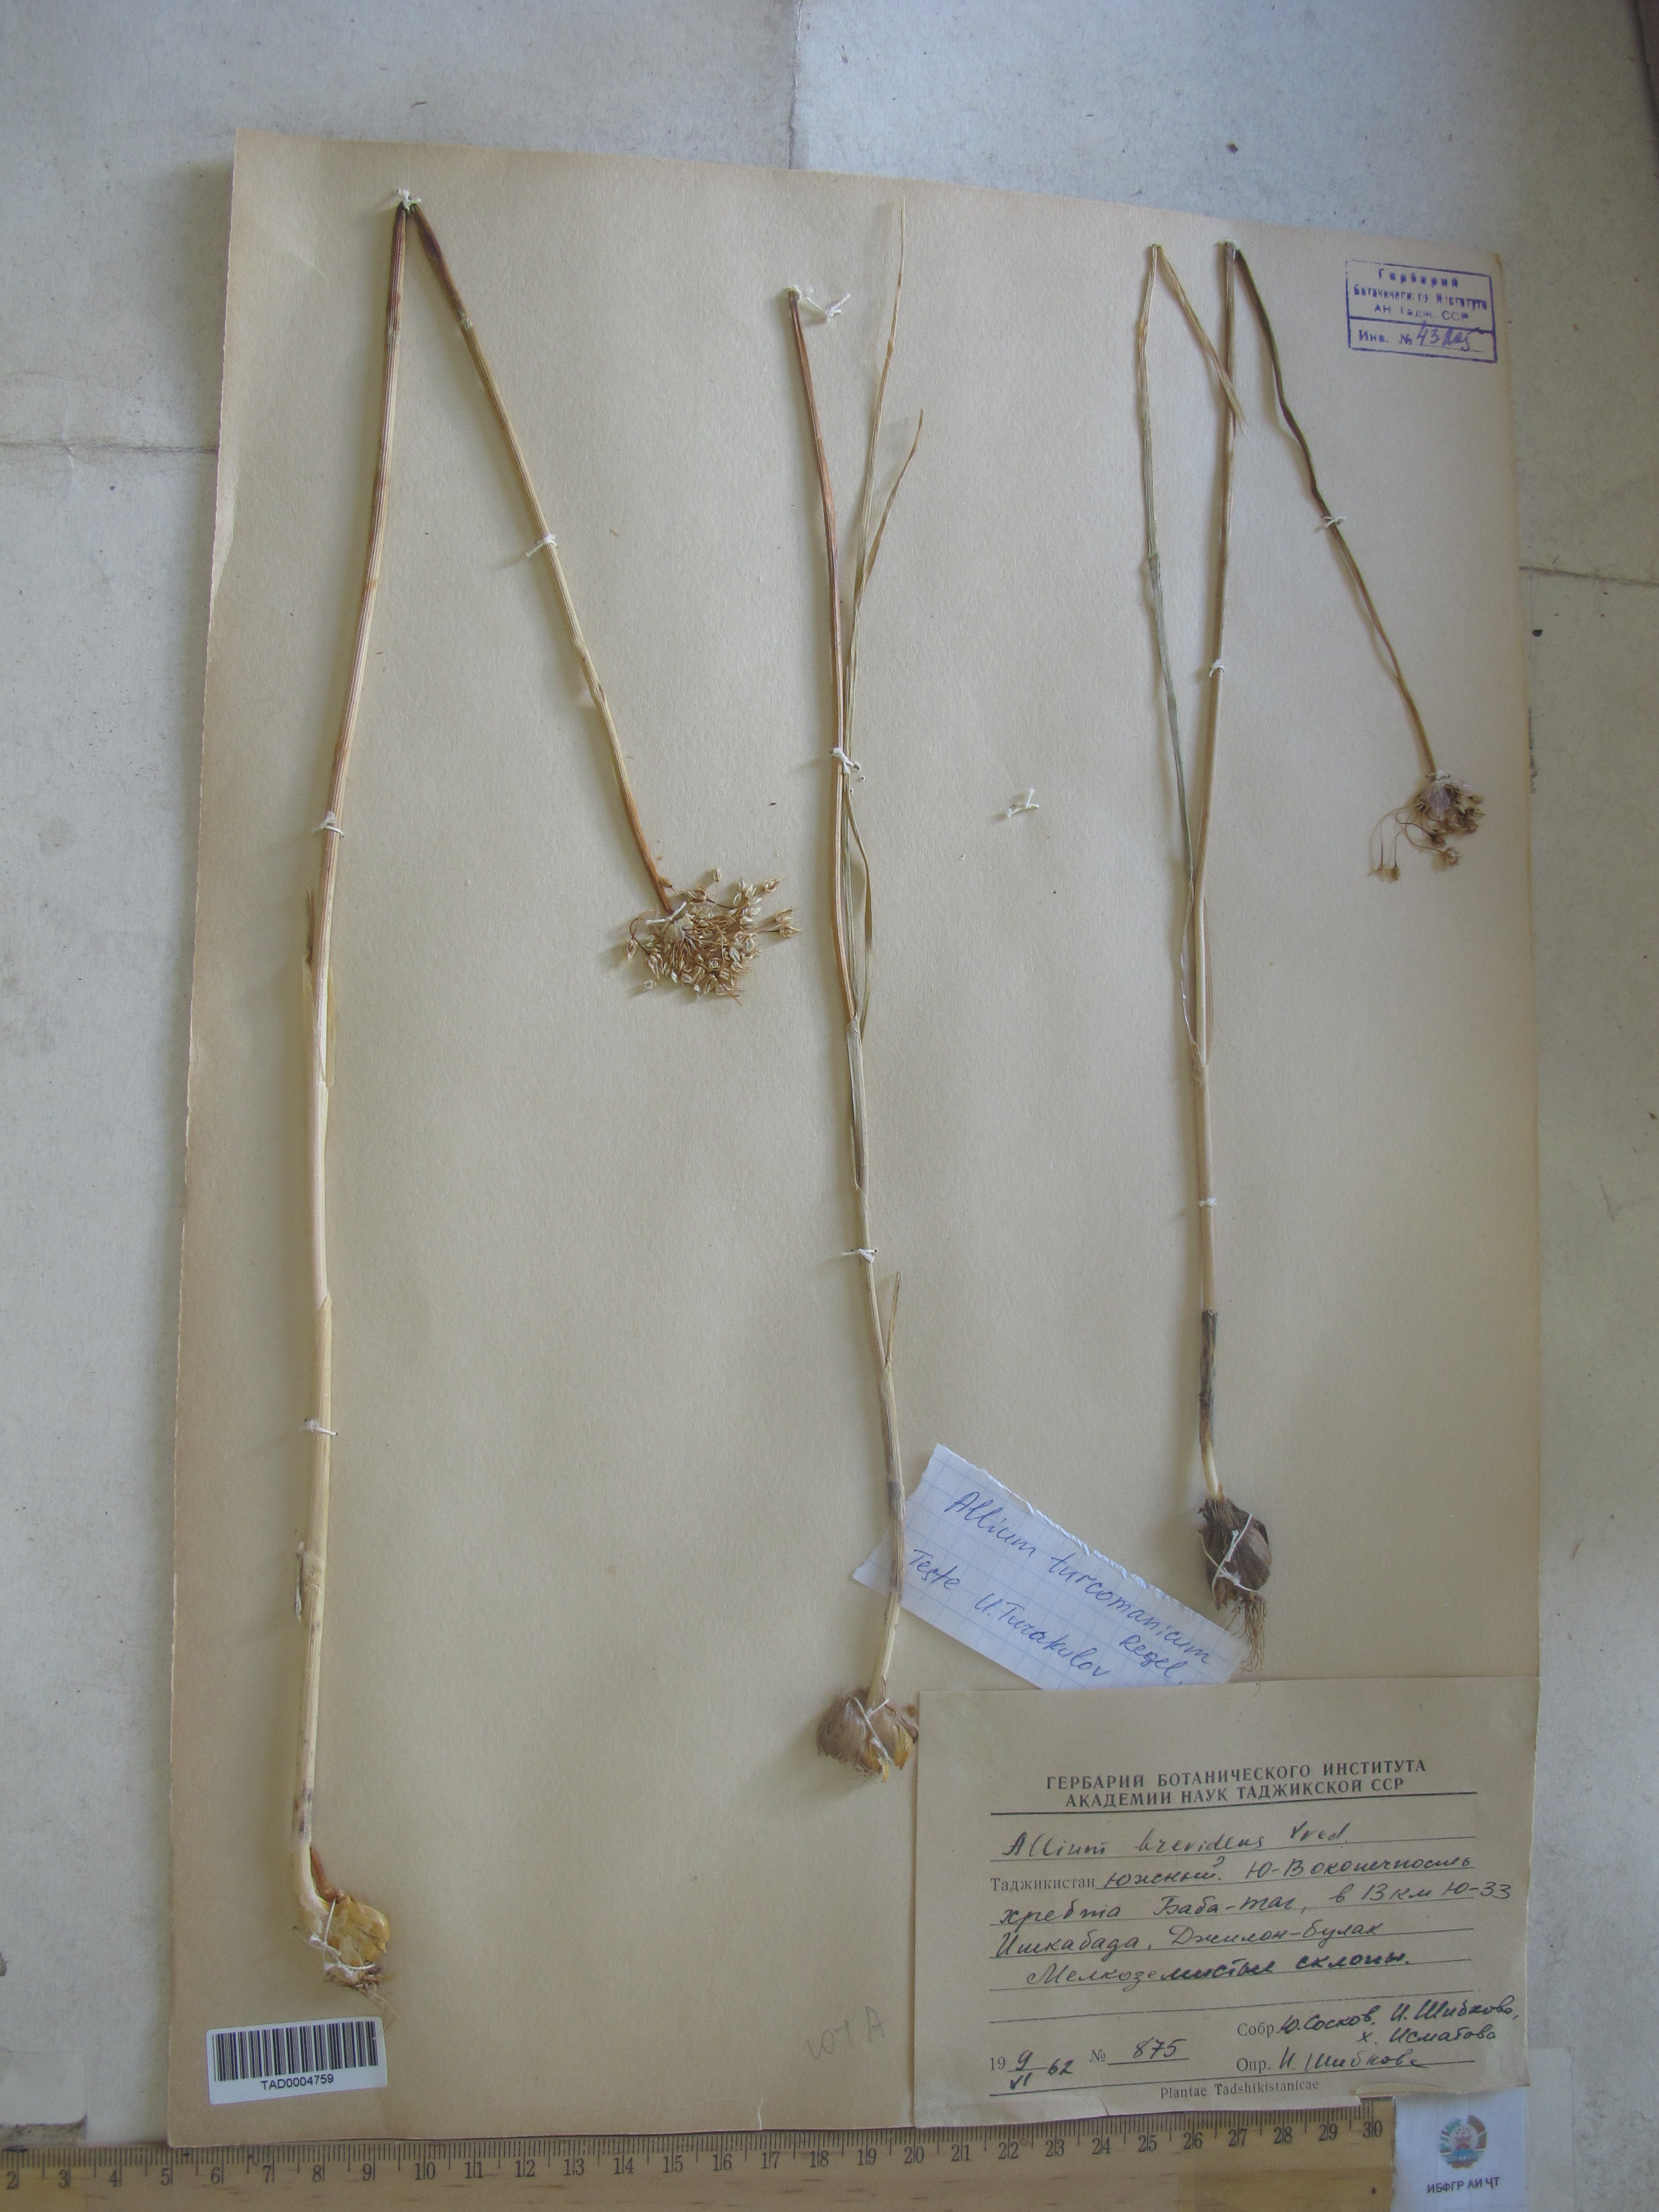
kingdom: Plantae
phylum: Tracheophyta
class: Liliopsida
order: Asparagales
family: Amaryllidaceae
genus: Allium
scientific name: Allium brevidens
